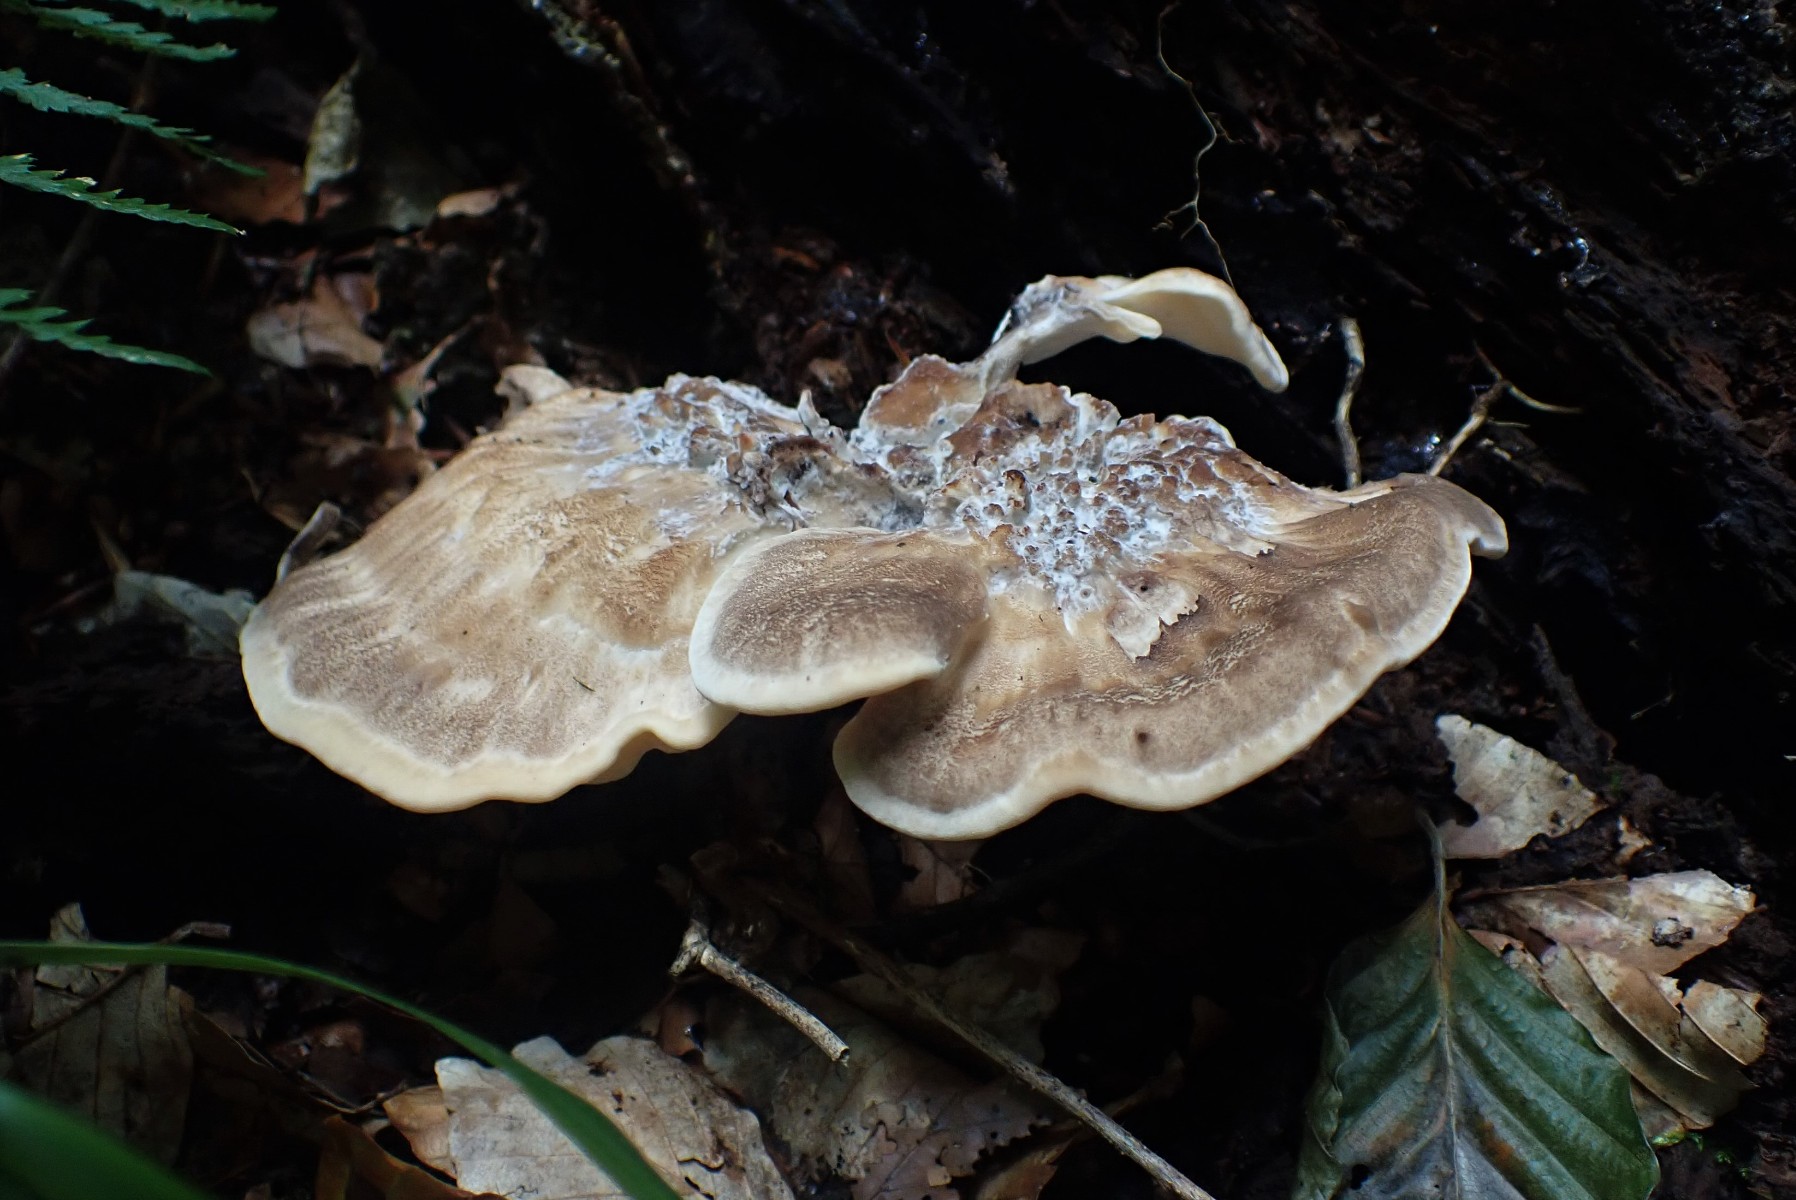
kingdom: Fungi
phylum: Basidiomycota
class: Agaricomycetes
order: Polyporales
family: Meripilaceae
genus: Meripilus
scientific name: Meripilus giganteus
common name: kæmpeporesvamp
